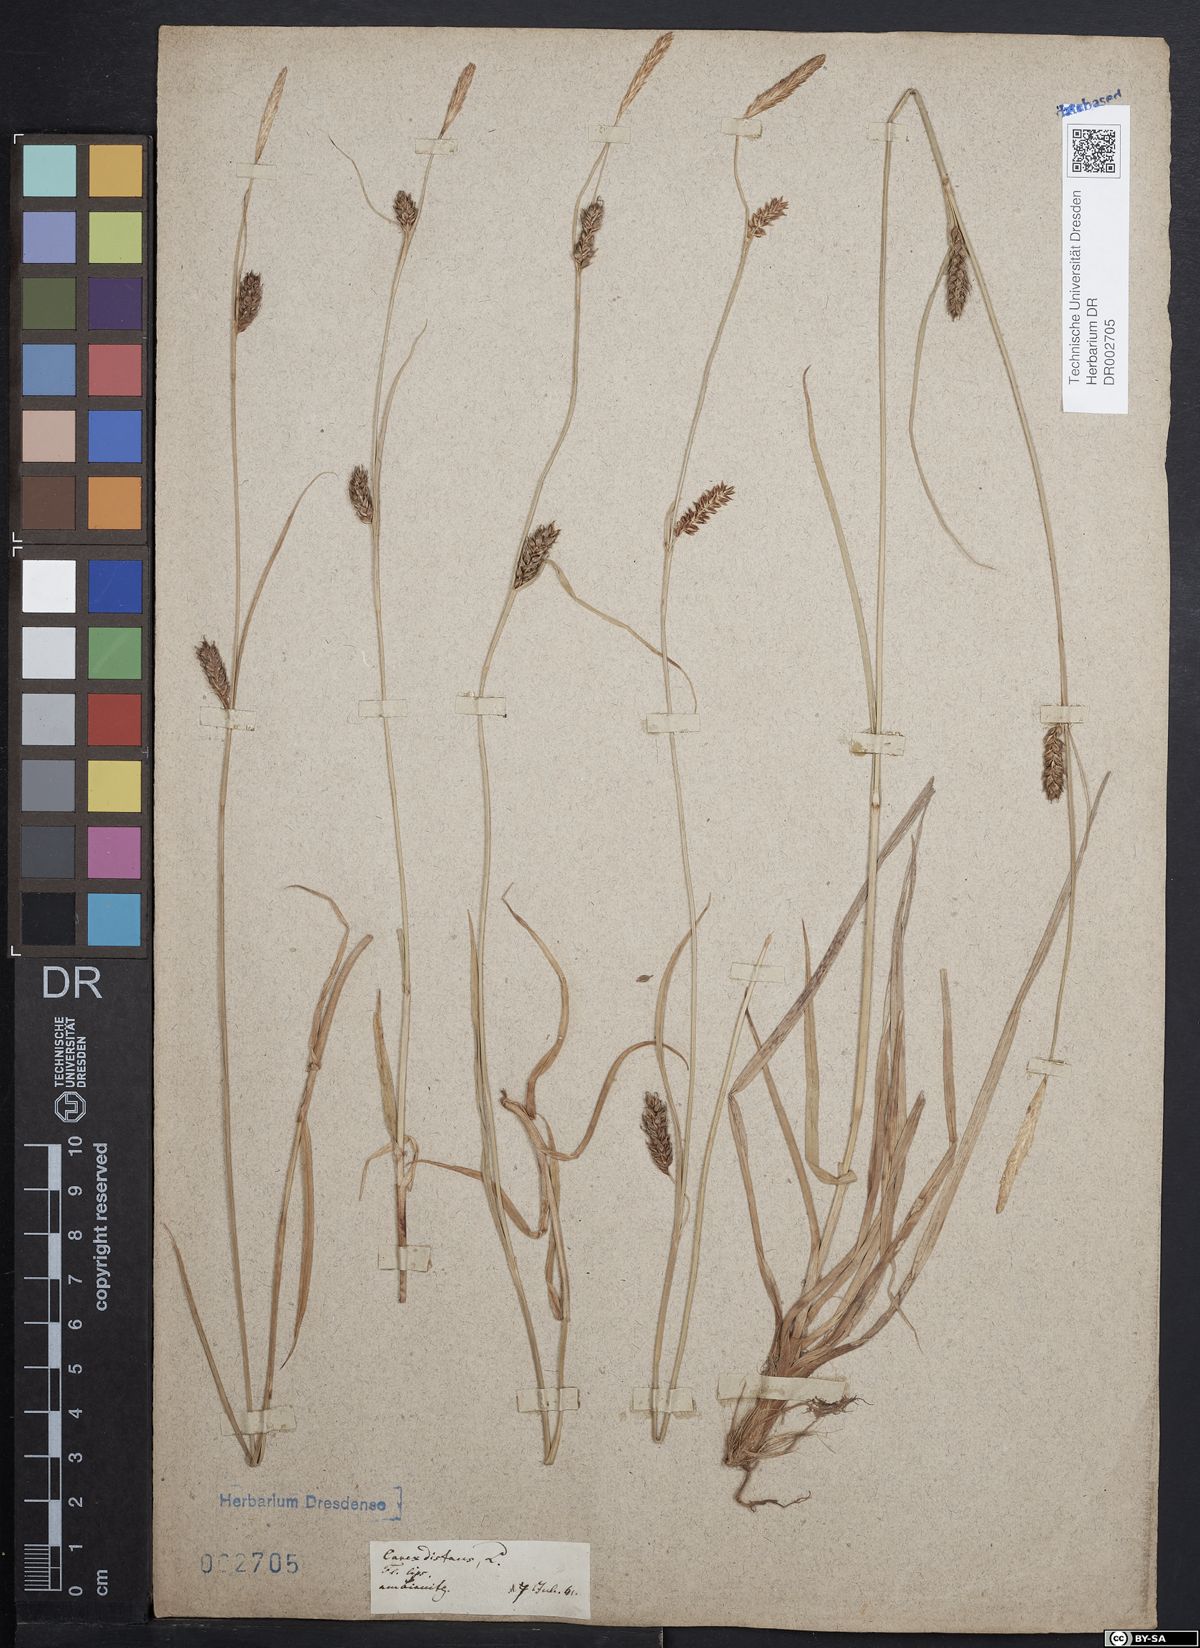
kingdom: Plantae
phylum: Tracheophyta
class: Liliopsida
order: Poales
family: Cyperaceae
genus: Carex
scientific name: Carex distans
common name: Distant sedge
